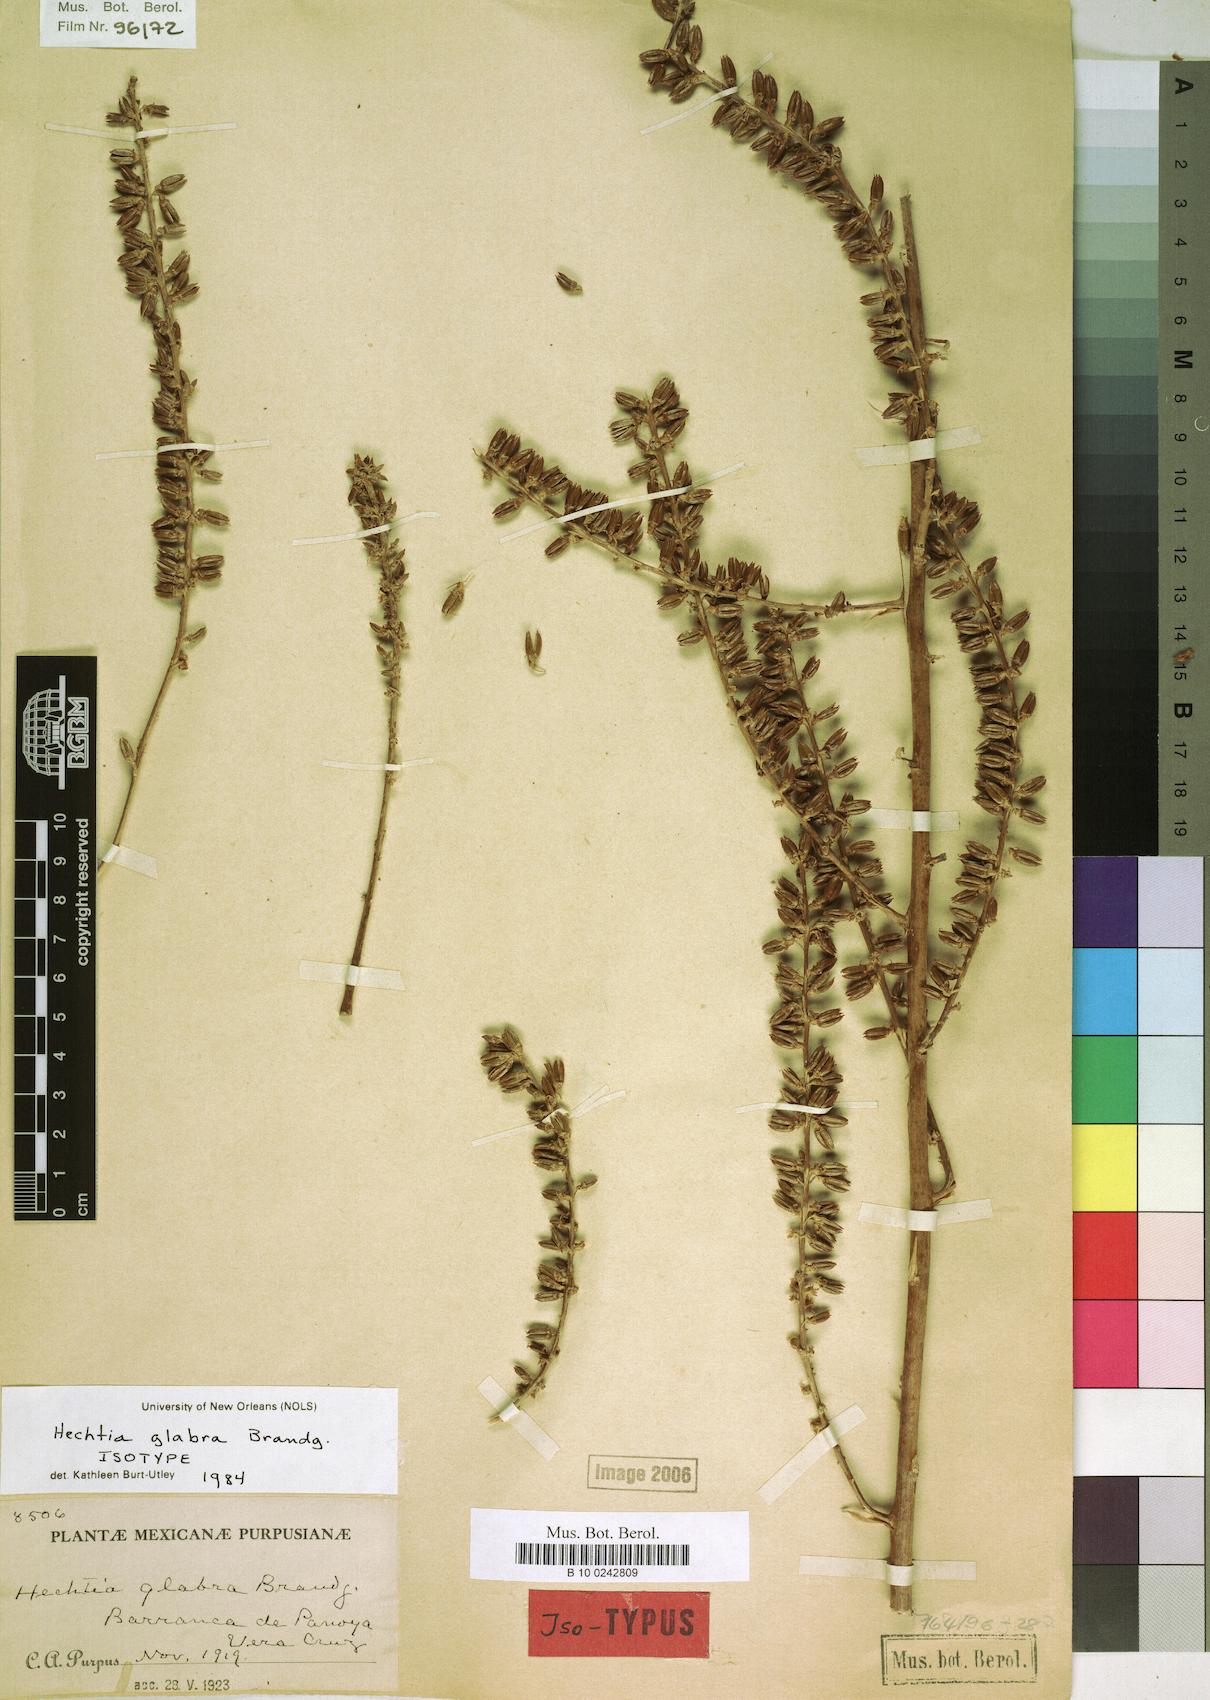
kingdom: Plantae
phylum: Tracheophyta
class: Liliopsida
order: Poales
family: Bromeliaceae
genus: Hechtia
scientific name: Hechtia stenopetala
